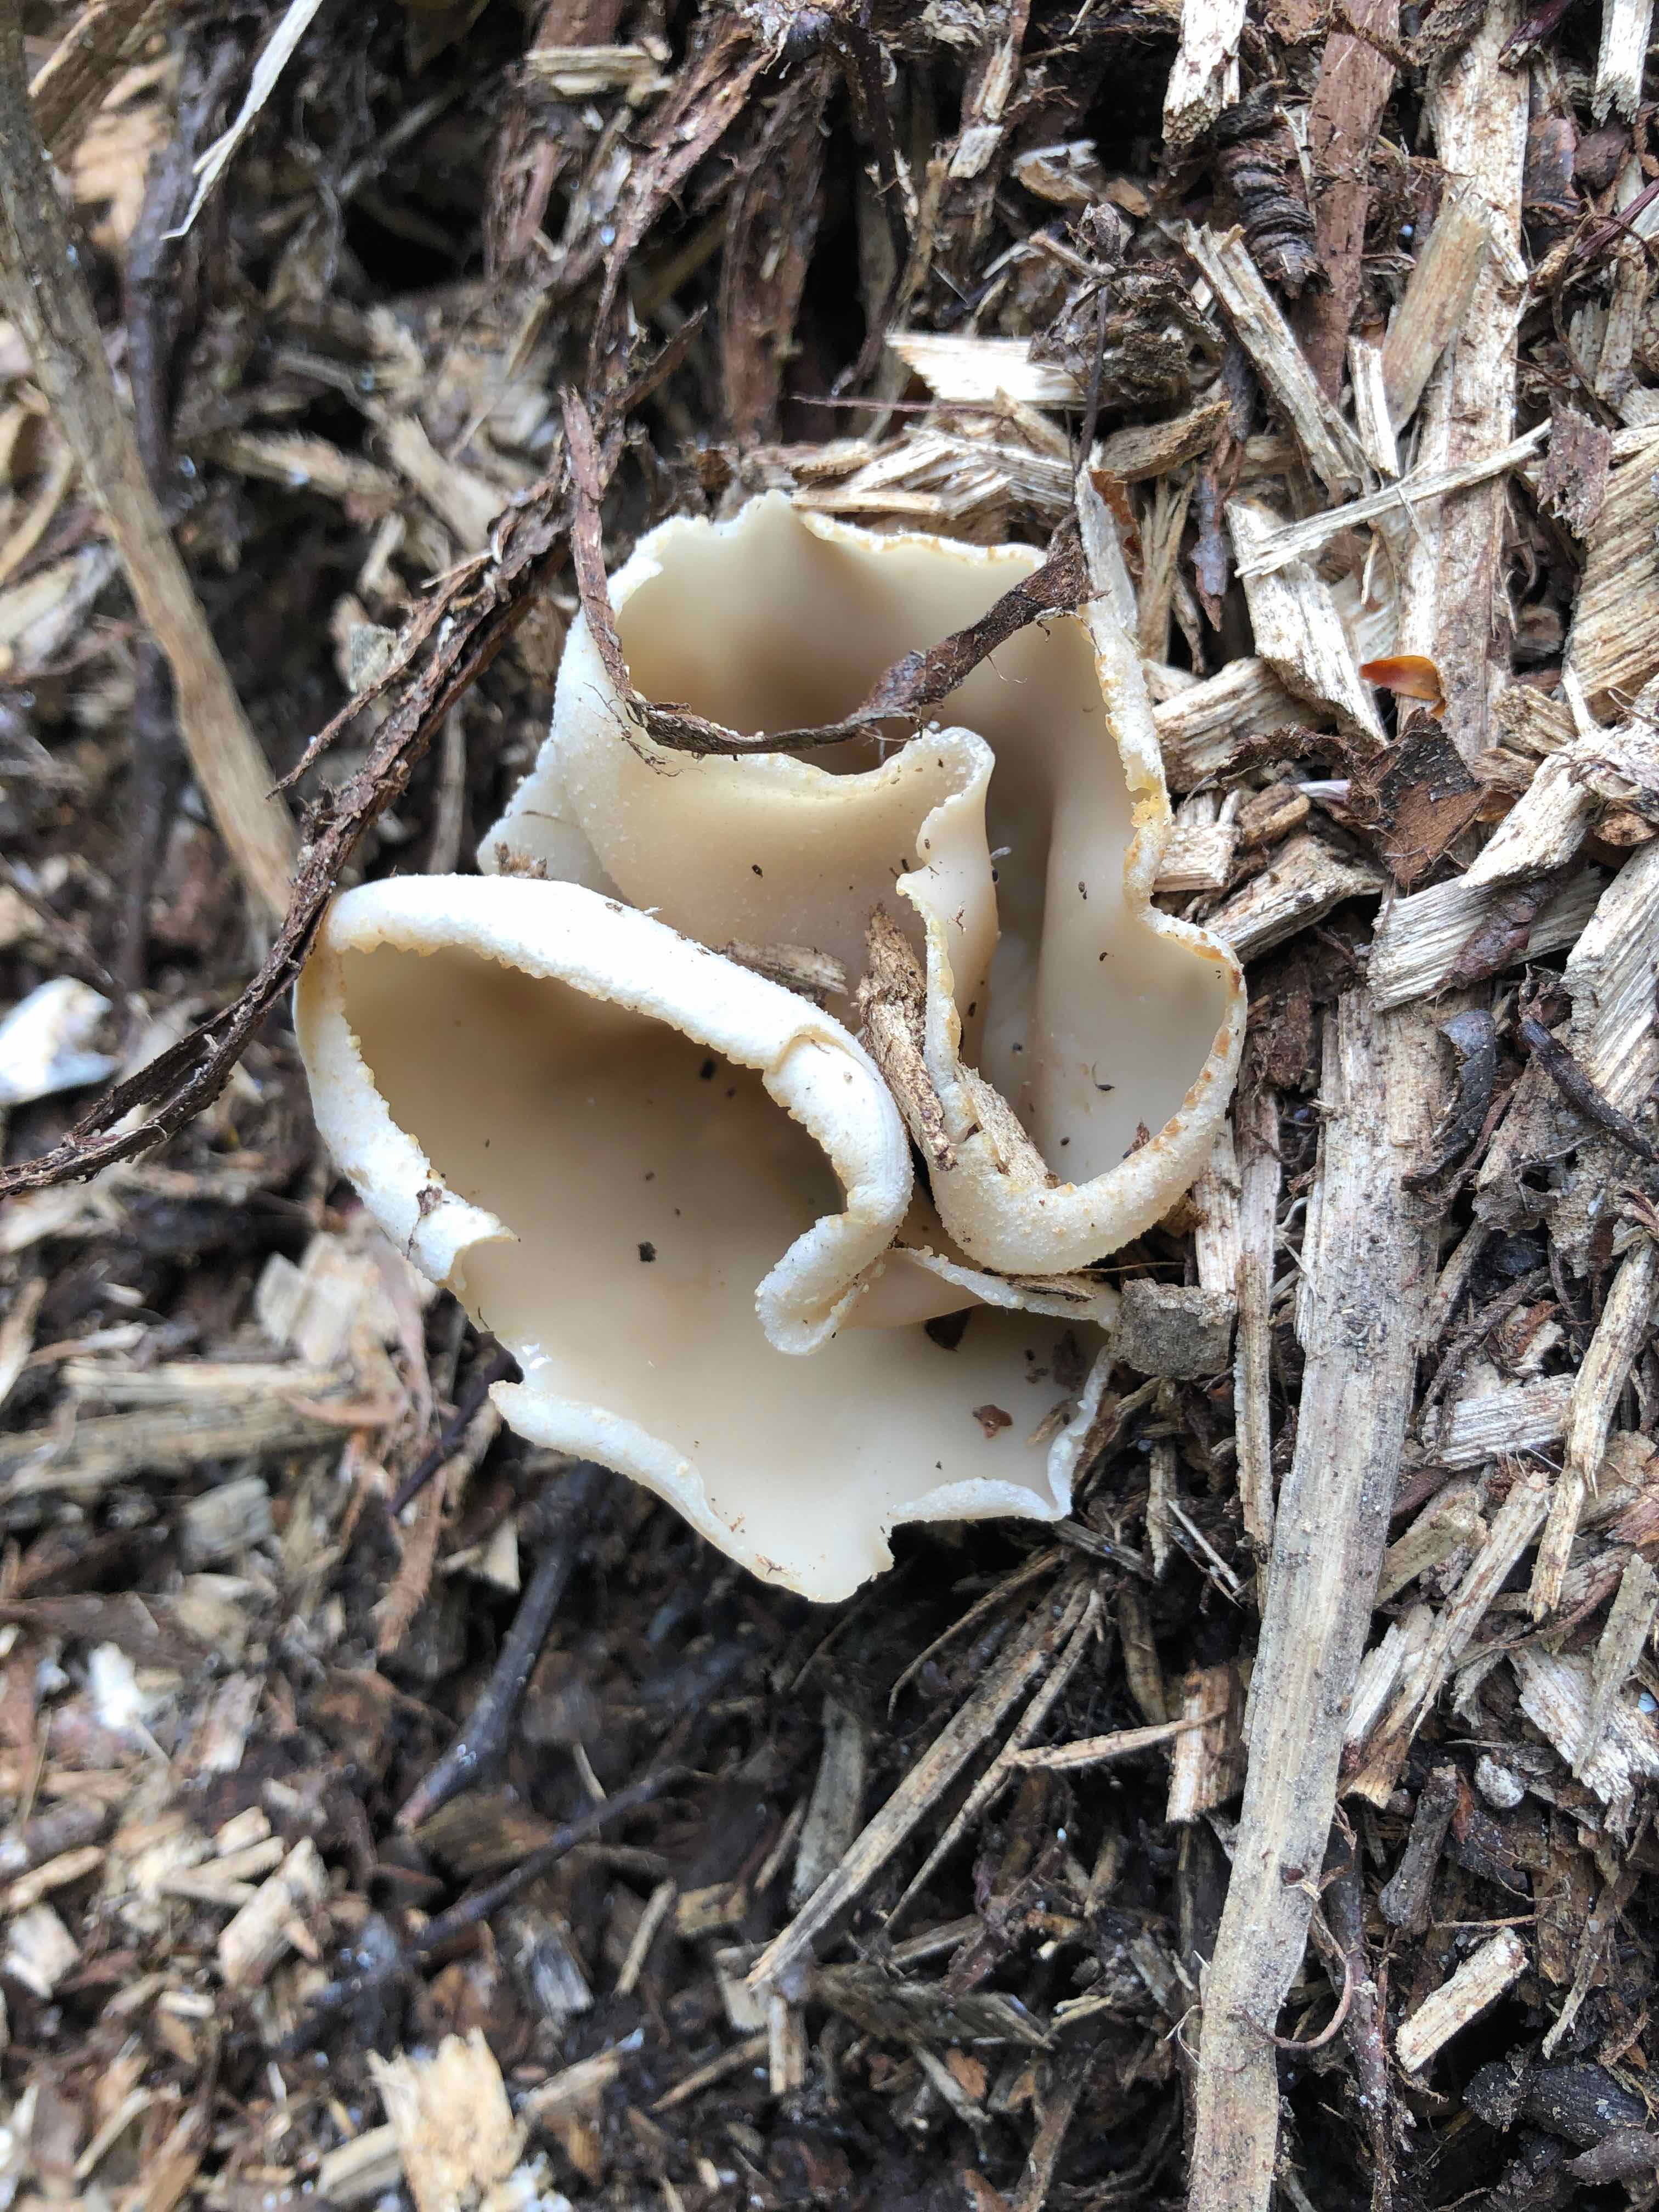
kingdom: Fungi
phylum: Ascomycota
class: Pezizomycetes
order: Pezizales
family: Pezizaceae
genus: Peziza
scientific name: Peziza
